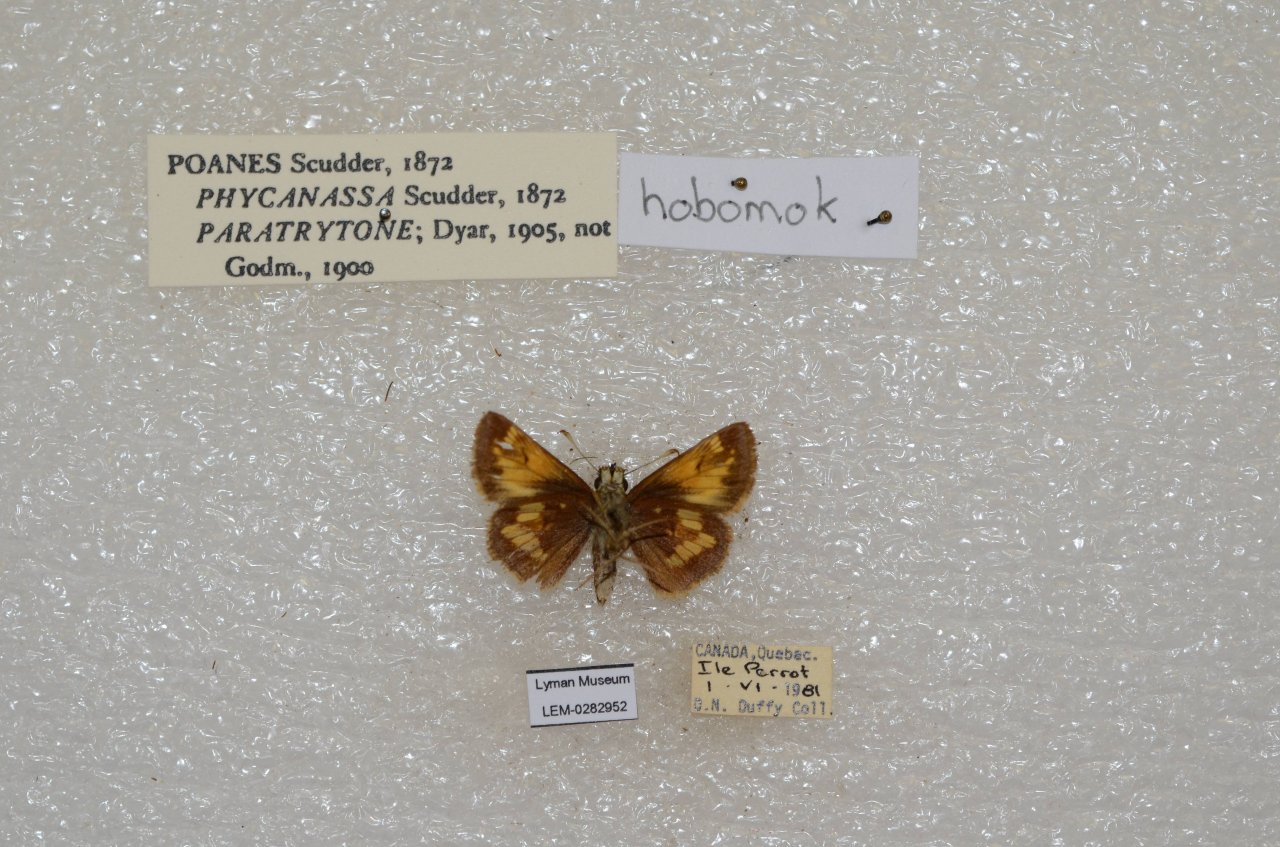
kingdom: Animalia
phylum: Arthropoda
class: Insecta
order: Lepidoptera
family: Hesperiidae
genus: Lon
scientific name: Lon hobomok
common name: Hobomok Skipper
